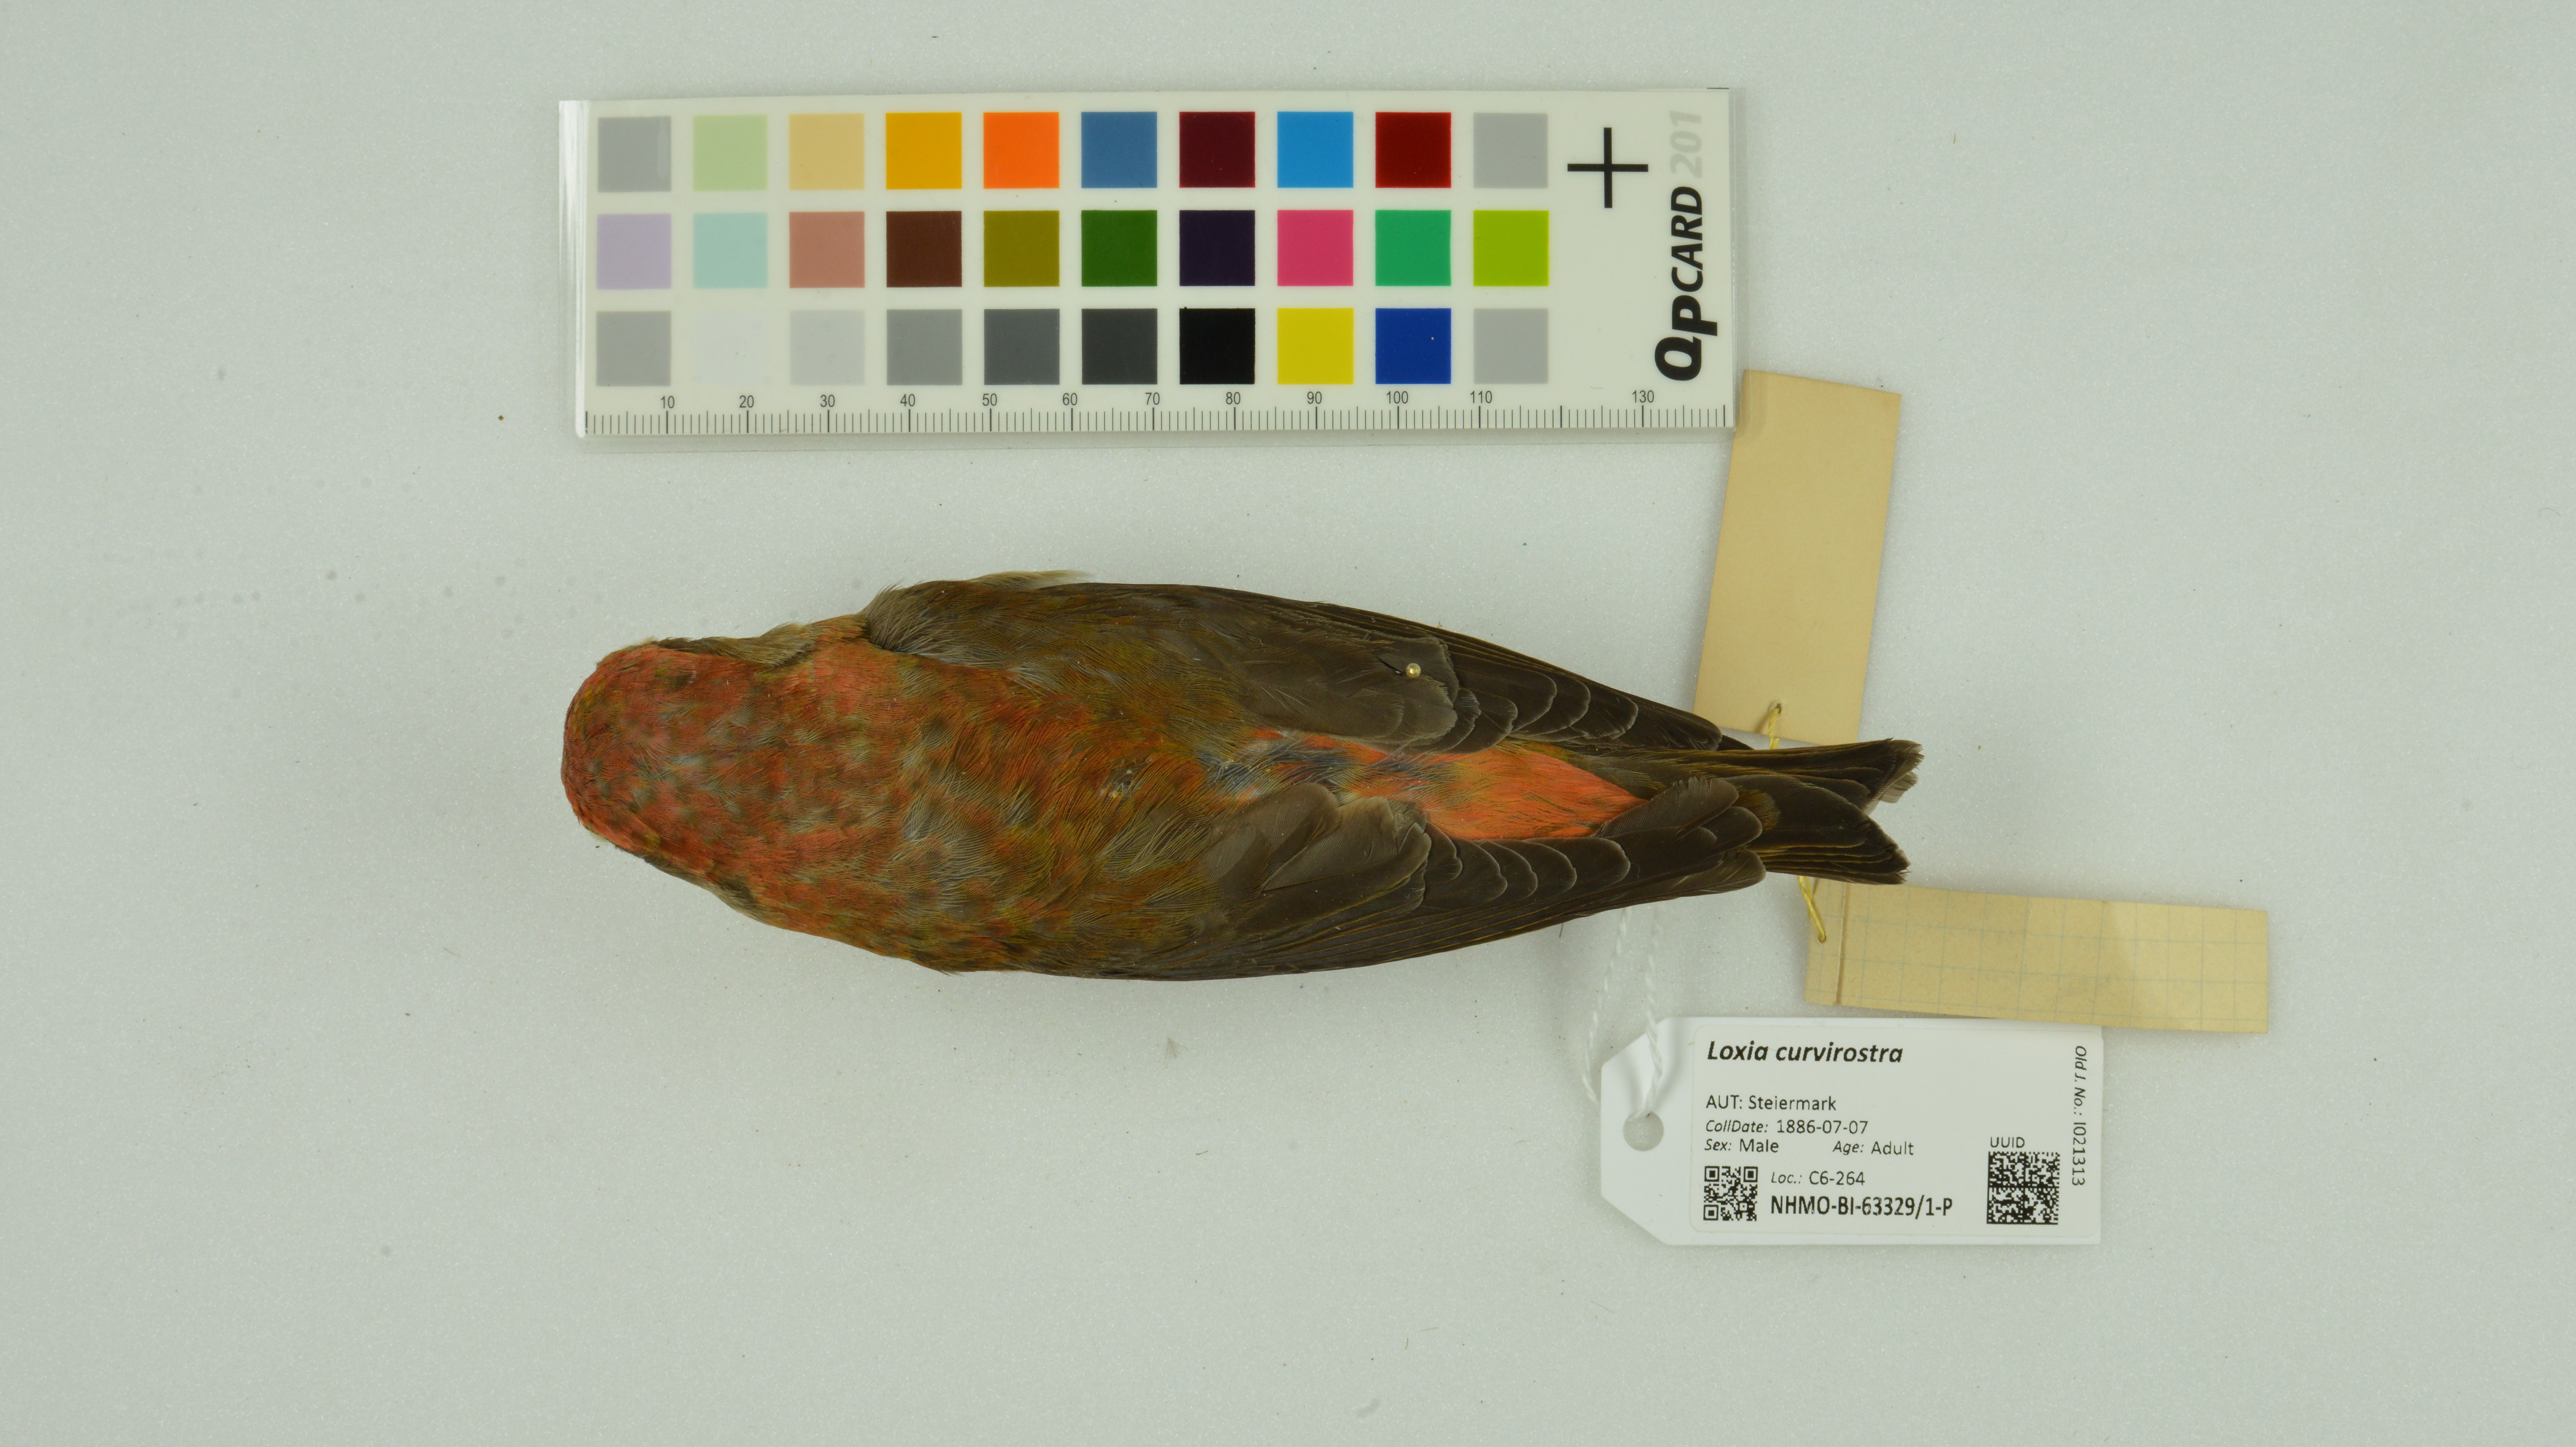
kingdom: Animalia
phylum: Chordata
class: Aves
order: Passeriformes
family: Fringillidae
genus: Loxia
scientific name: Loxia curvirostra
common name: Red crossbill
